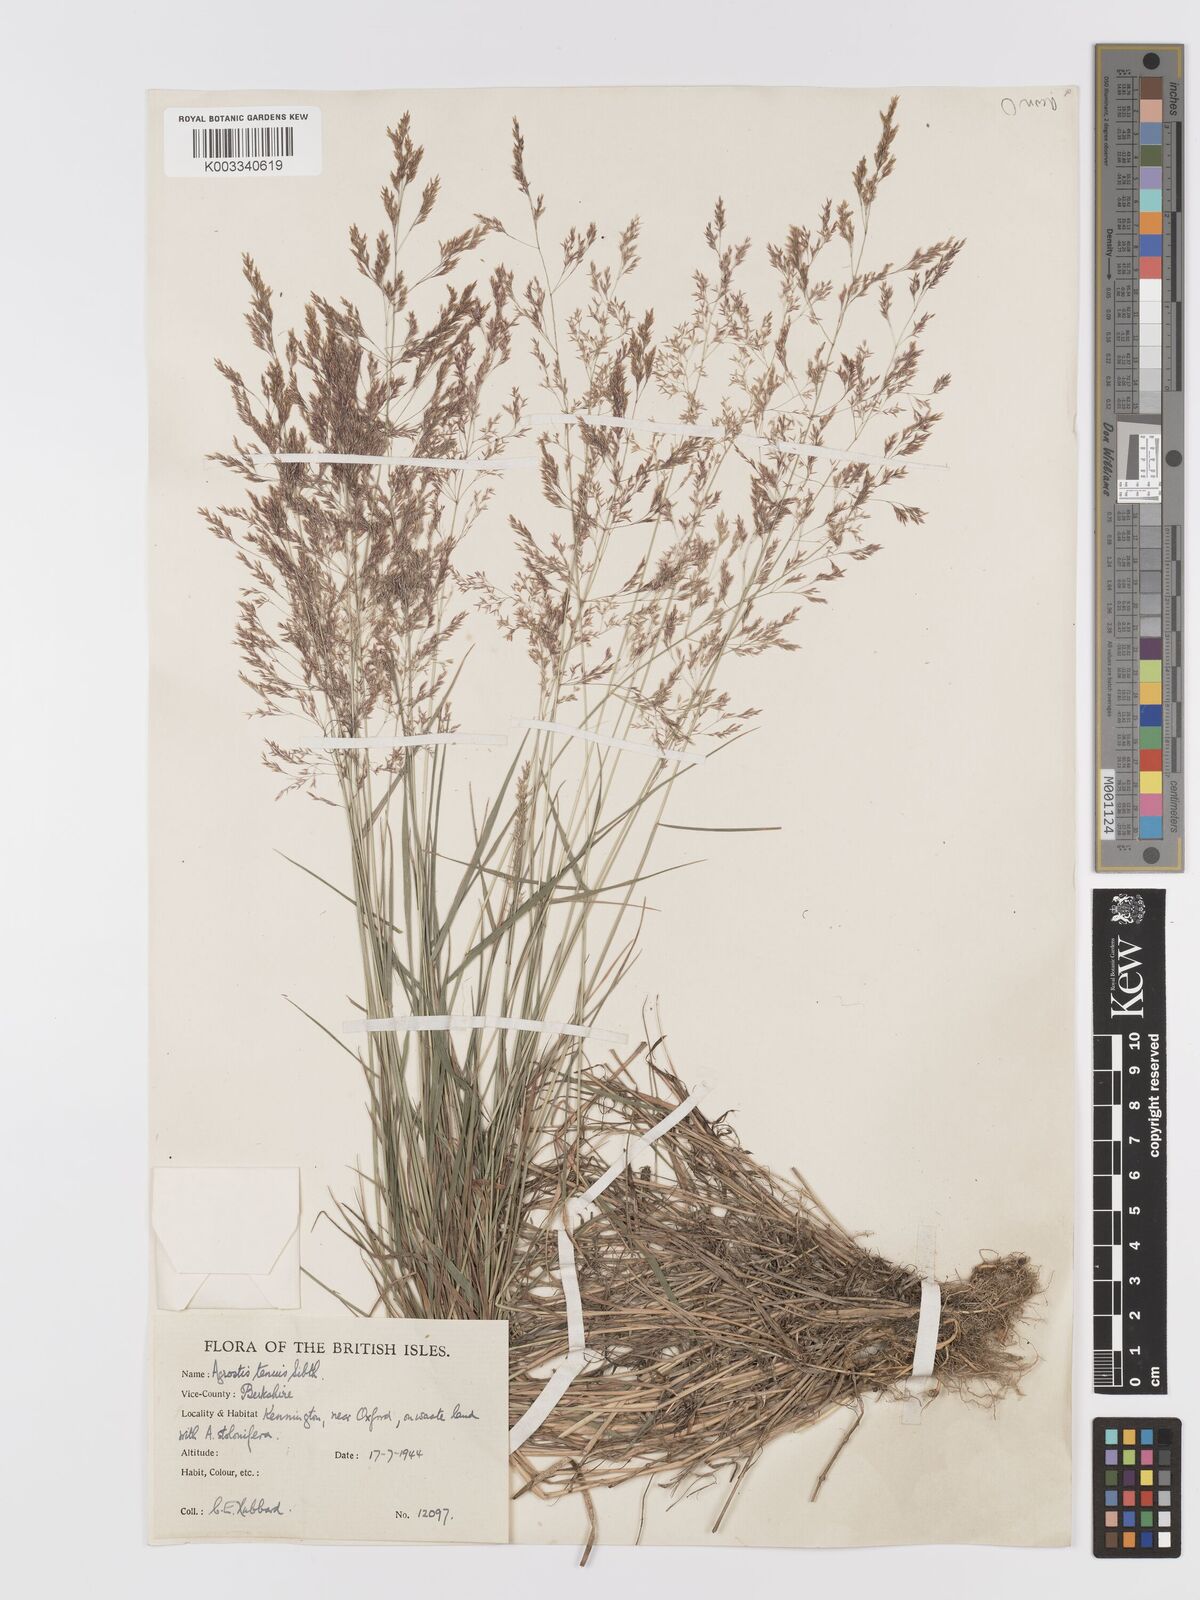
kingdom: Plantae
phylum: Tracheophyta
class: Liliopsida
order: Poales
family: Poaceae
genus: Agrostis
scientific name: Agrostis capillaris
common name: Colonial bentgrass
